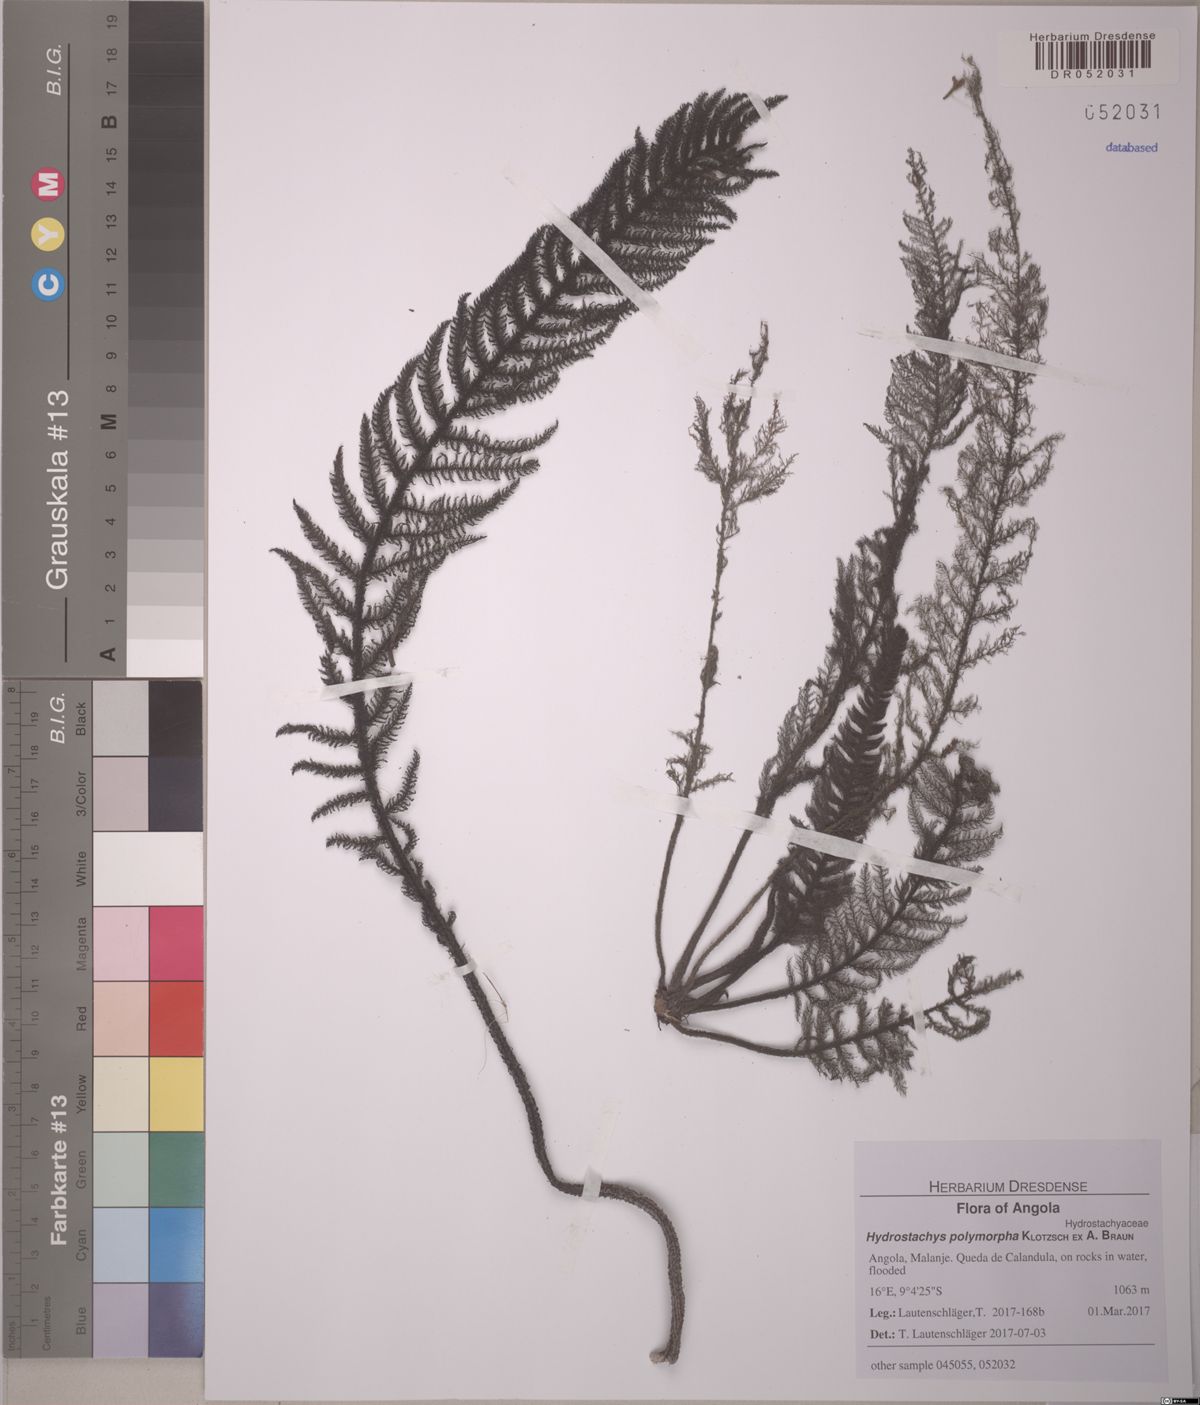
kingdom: Plantae
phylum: Tracheophyta
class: Magnoliopsida
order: Cornales
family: Hydrostachyaceae
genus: Hydrostachys
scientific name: Hydrostachys polymorpha
